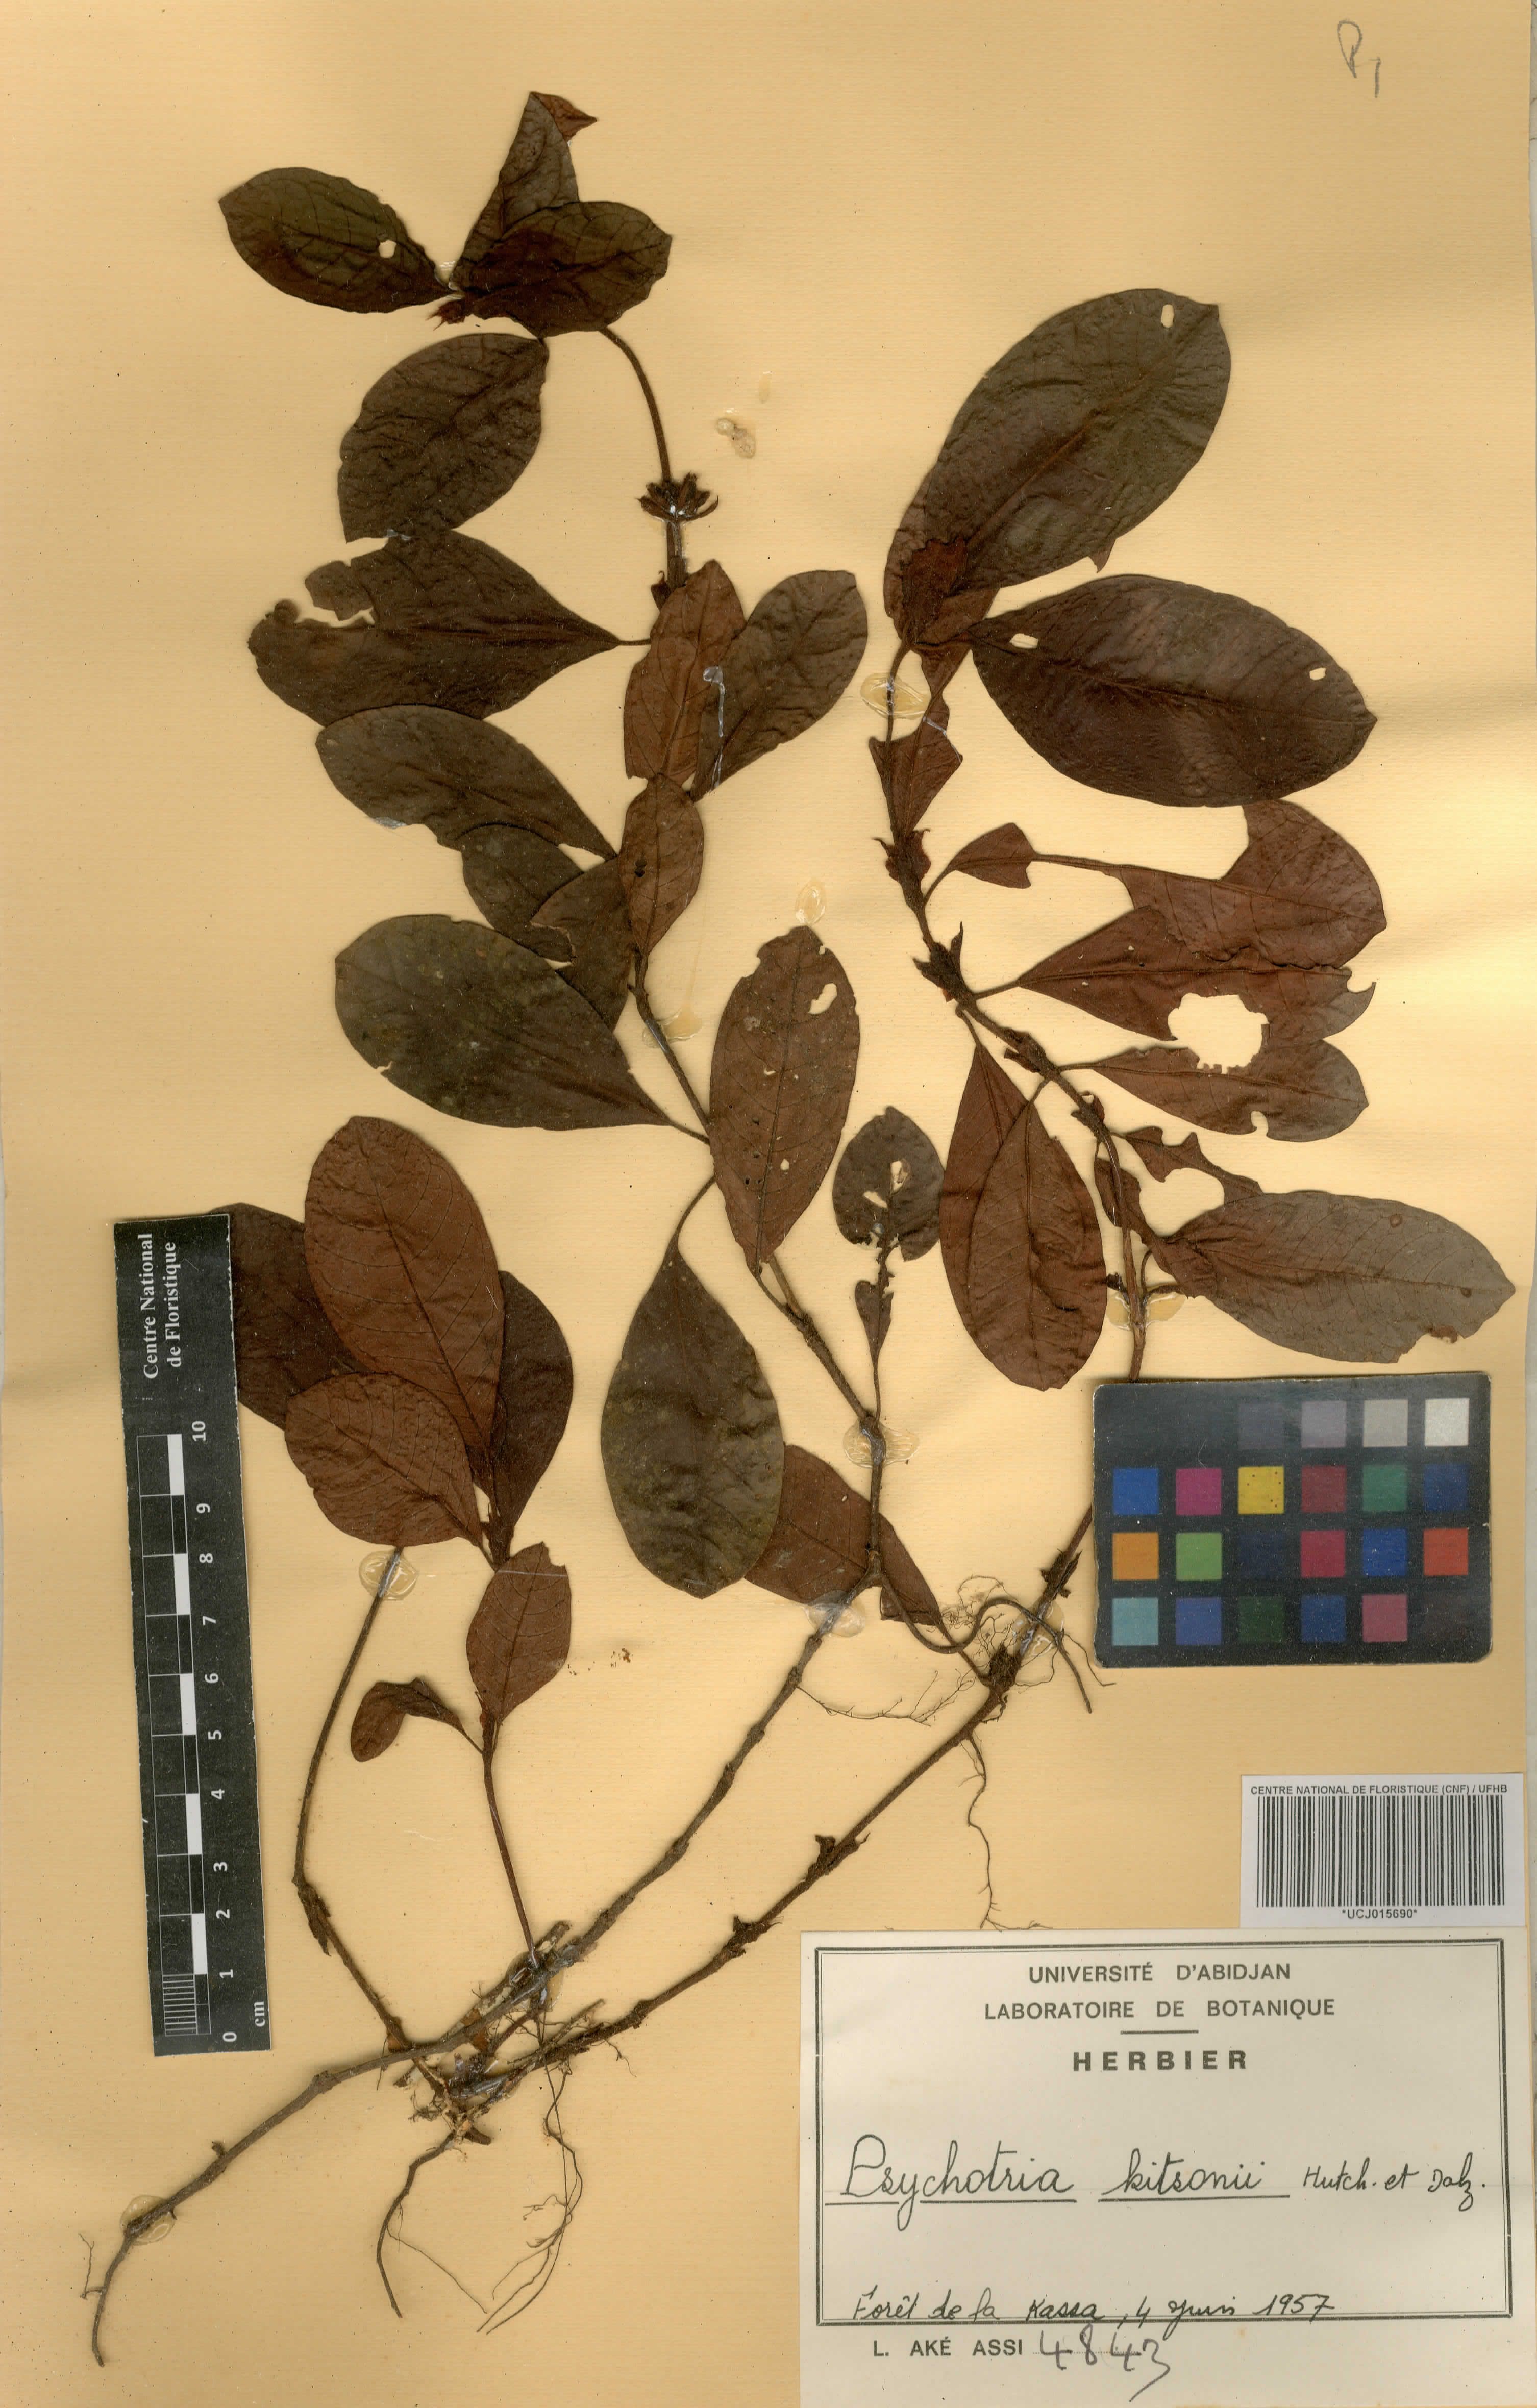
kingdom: Plantae
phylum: Tracheophyta
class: Magnoliopsida
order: Gentianales
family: Rubiaceae
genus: Psychotria
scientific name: Psychotria kitsonii
